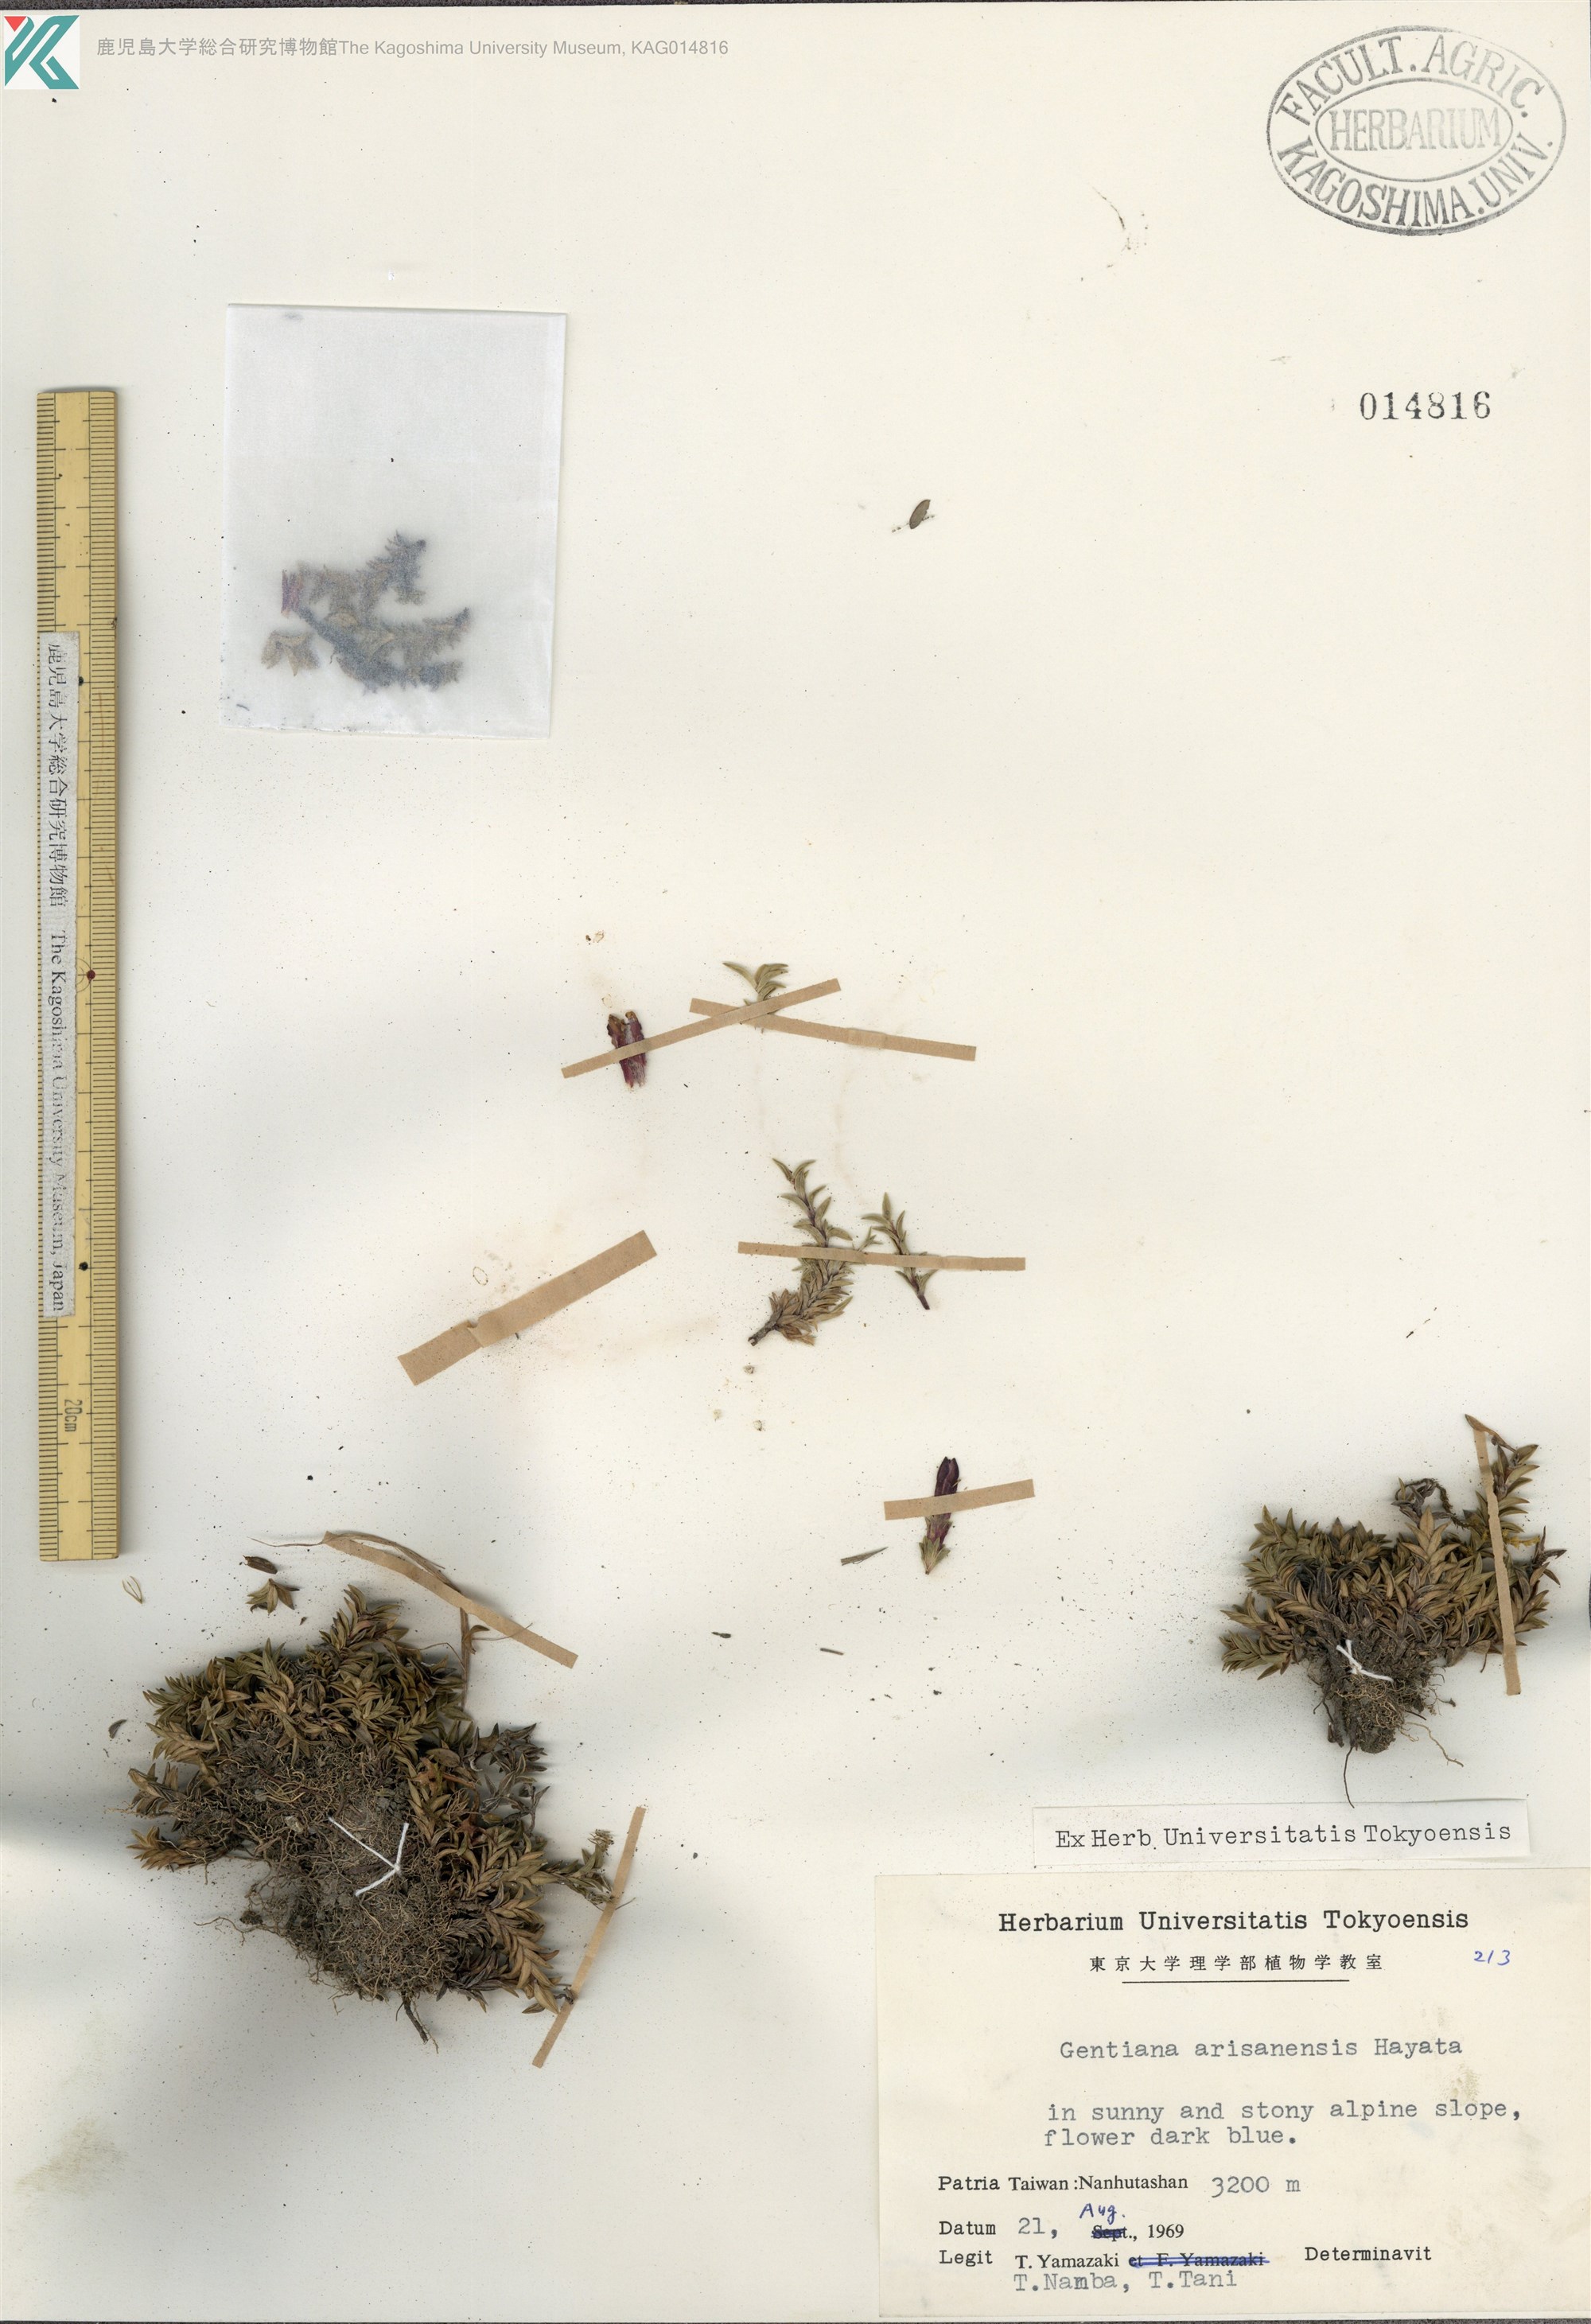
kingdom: Plantae
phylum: Tracheophyta
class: Magnoliopsida
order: Gentianales
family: Gentianaceae
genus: Gentiana
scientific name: Gentiana arisanensis
